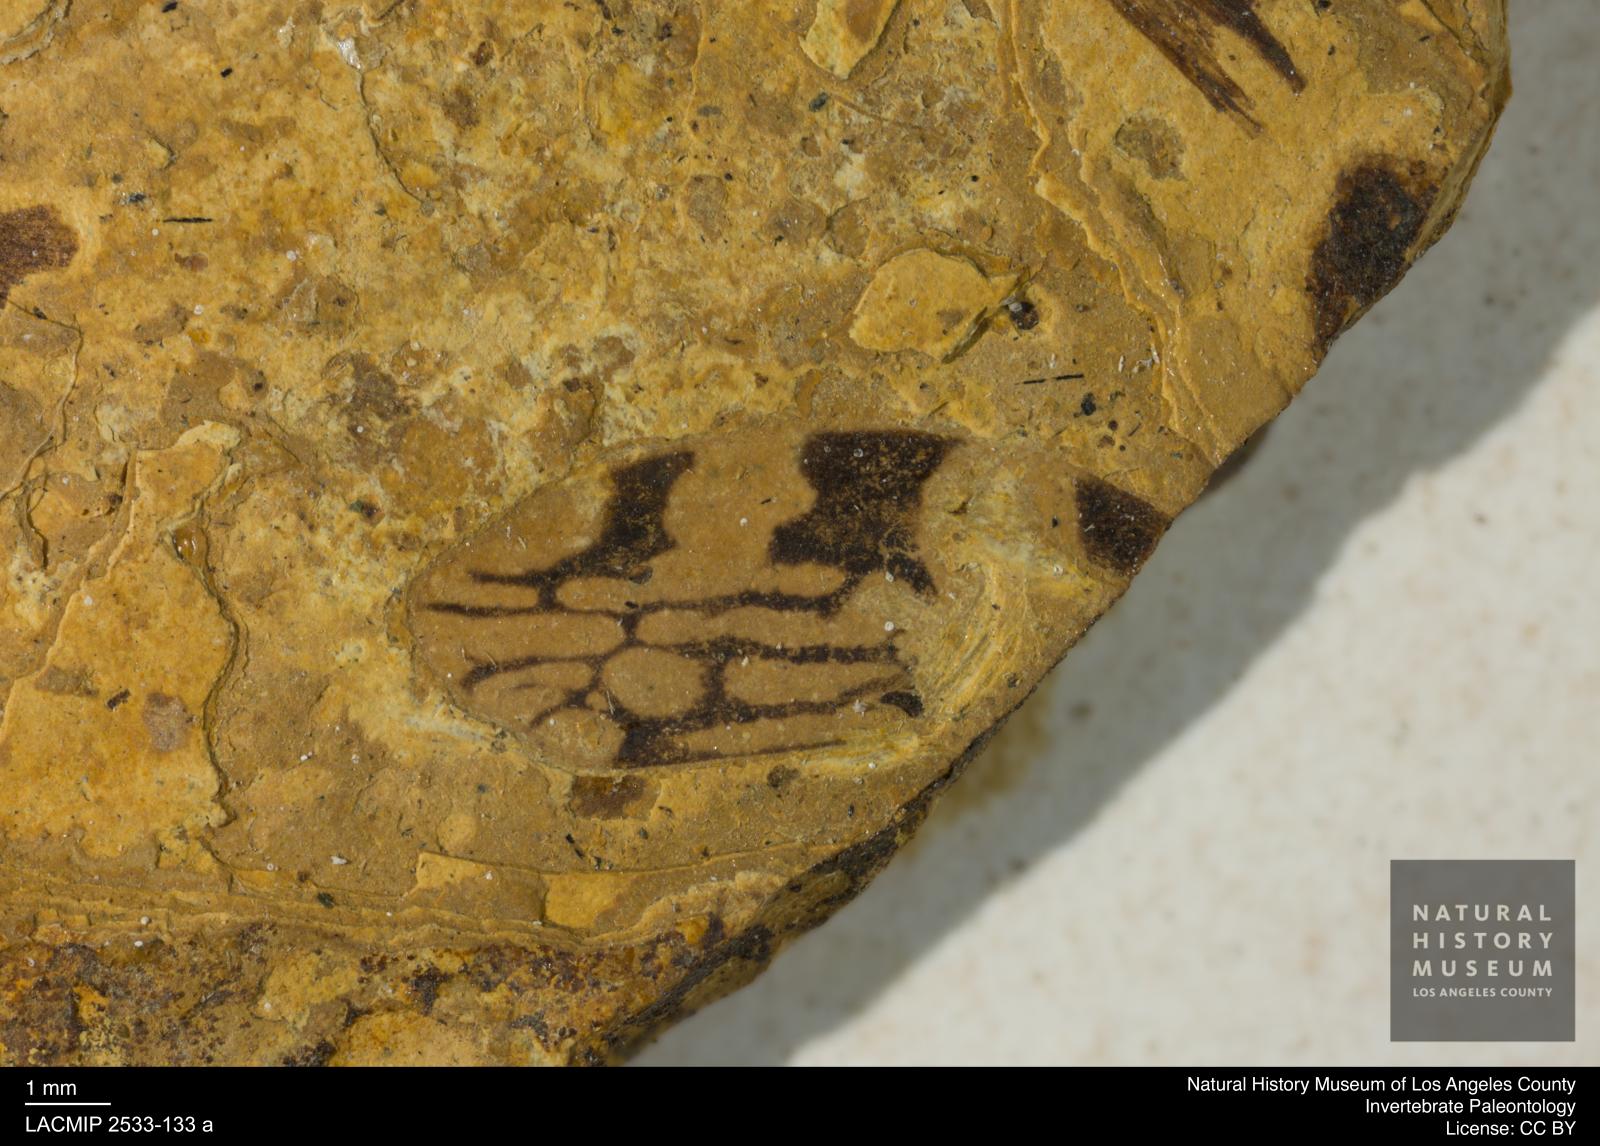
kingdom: Animalia
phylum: Arthropoda
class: Insecta
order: Hemiptera
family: Cercopidae
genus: Cercopis
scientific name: Cercopis
